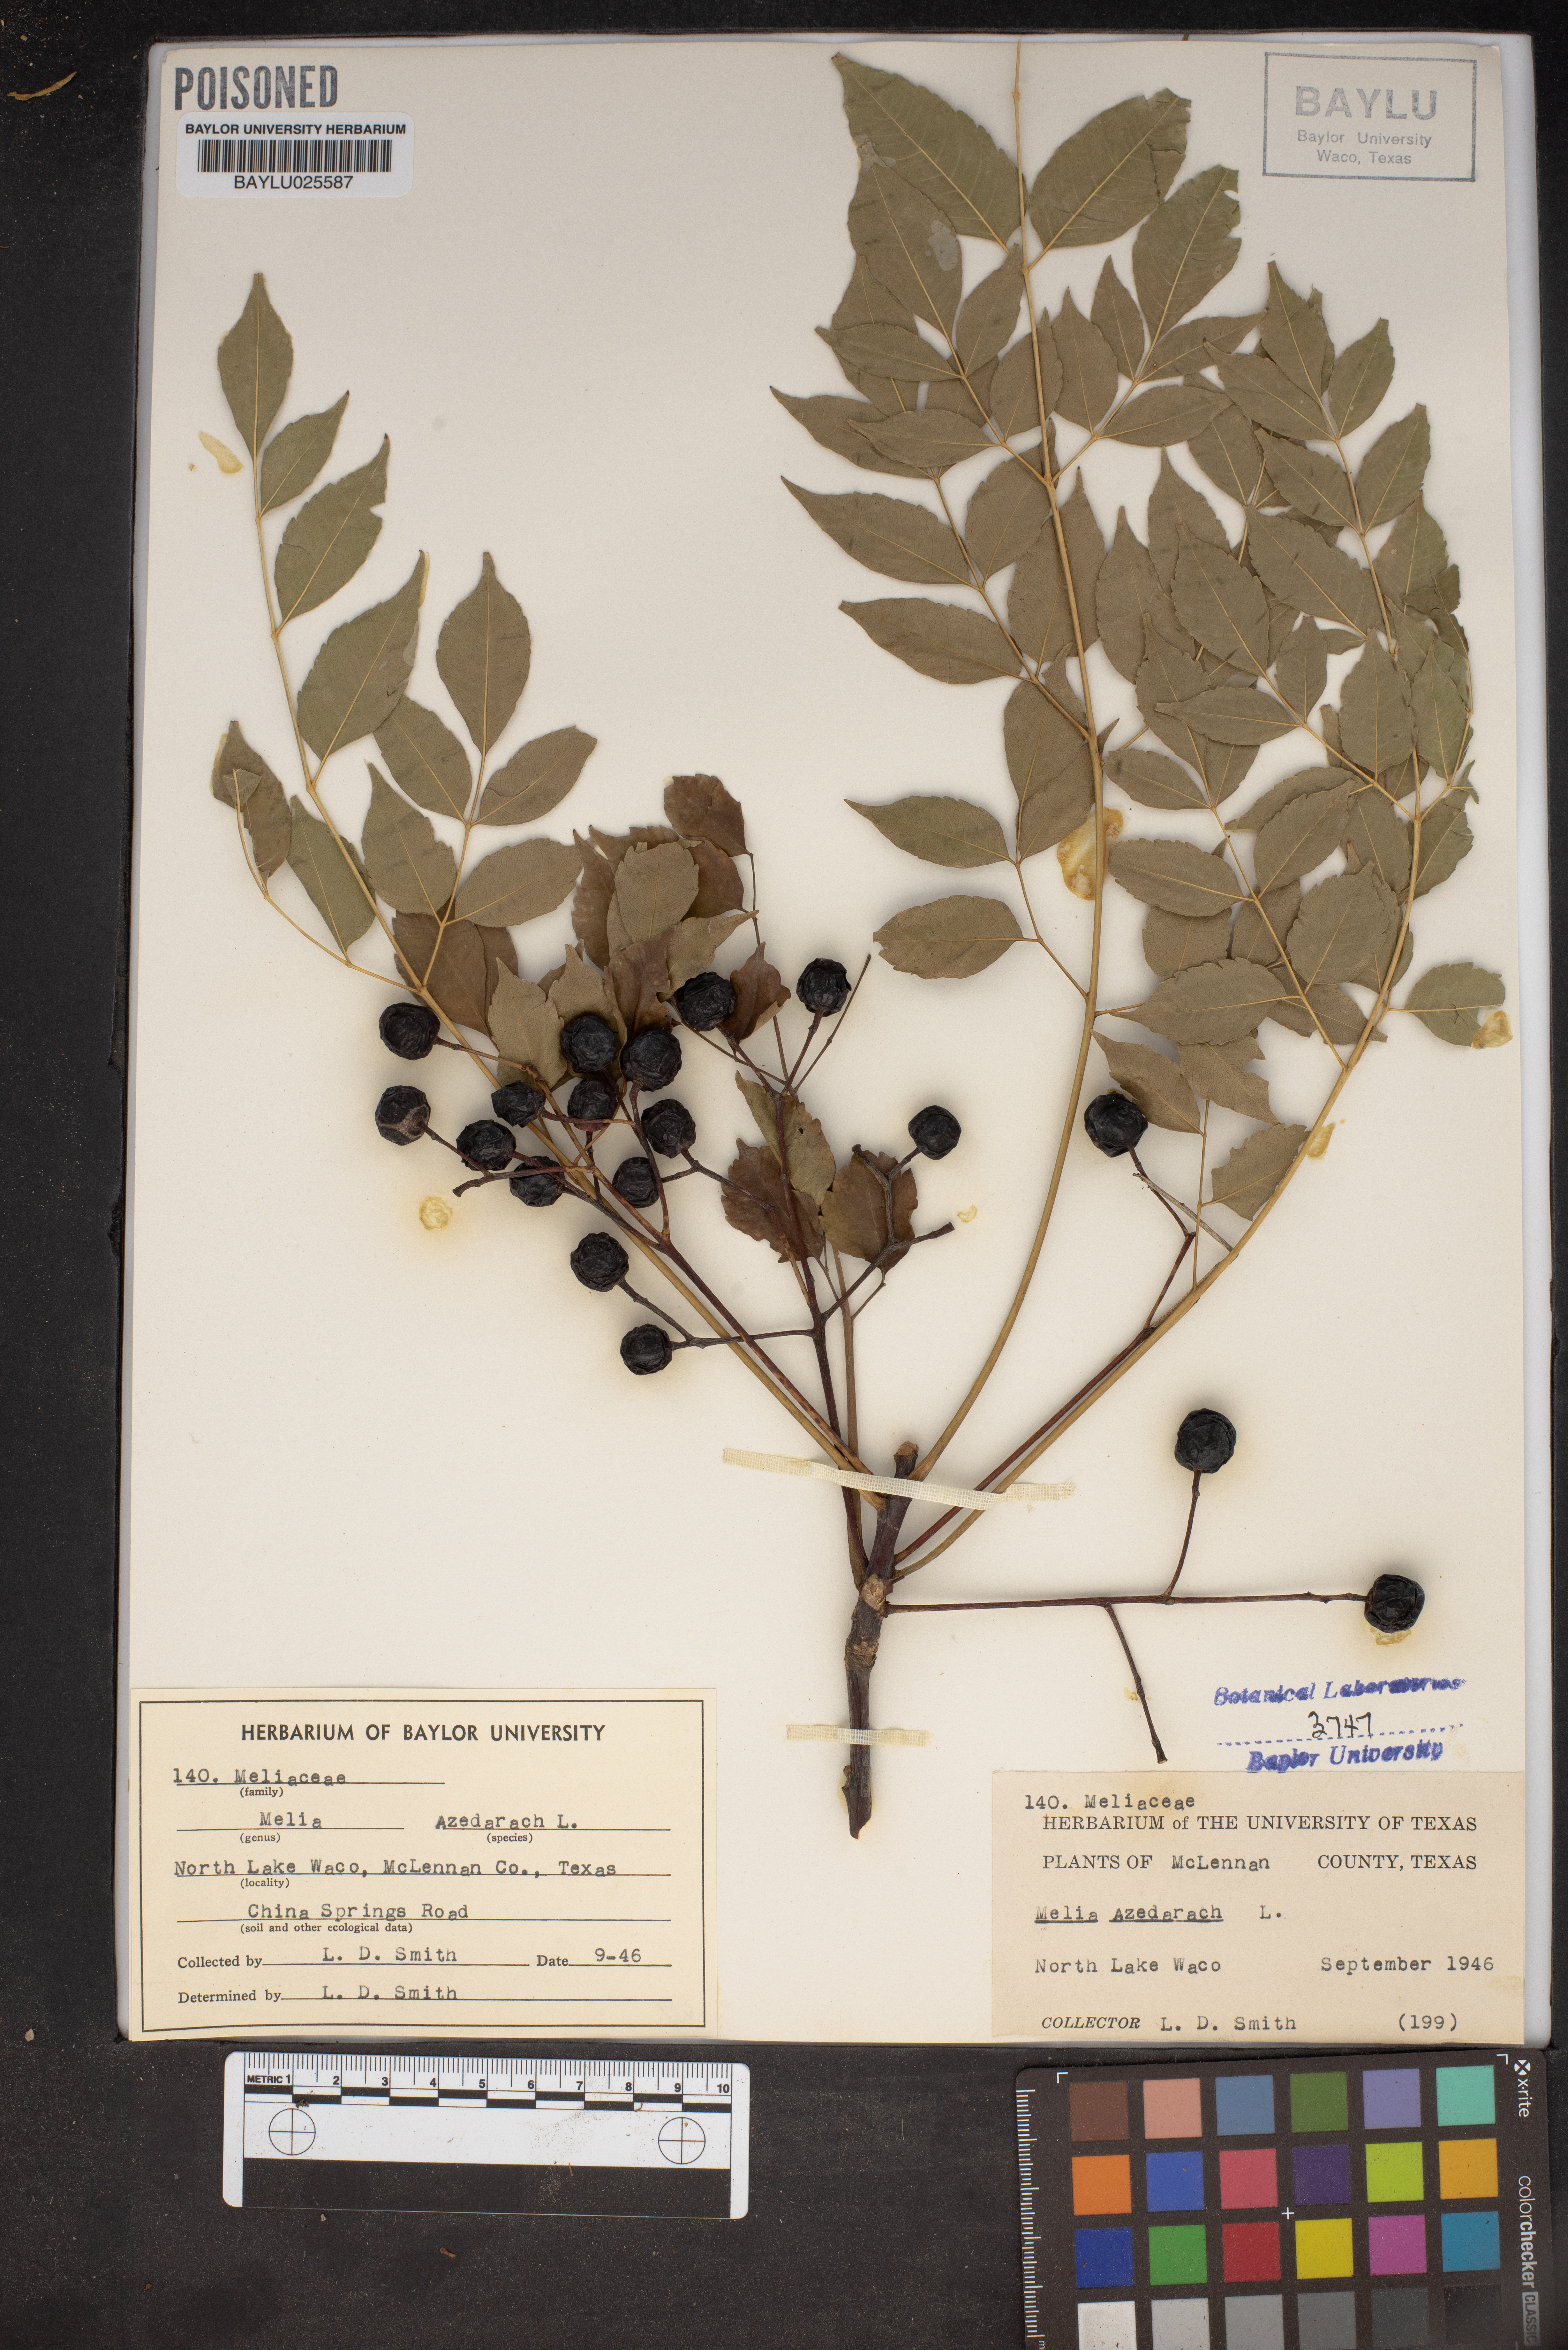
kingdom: Plantae
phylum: Tracheophyta
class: Magnoliopsida
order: Sapindales
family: Meliaceae
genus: Melia
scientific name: Melia azedarach
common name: Chinaberrytree
